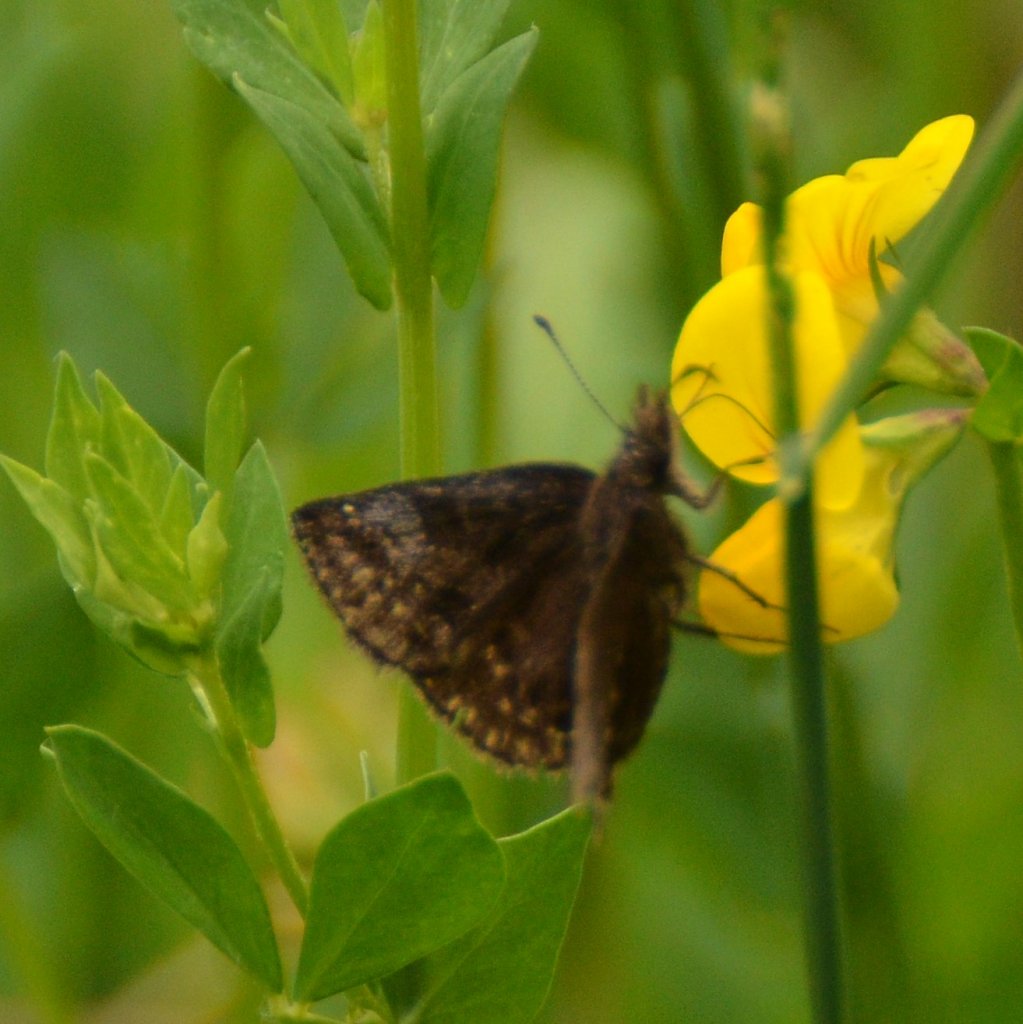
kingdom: Animalia
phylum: Arthropoda
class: Insecta
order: Lepidoptera
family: Hesperiidae
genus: Erynnis
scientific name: Erynnis icelus
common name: Dreamy Duskywing
